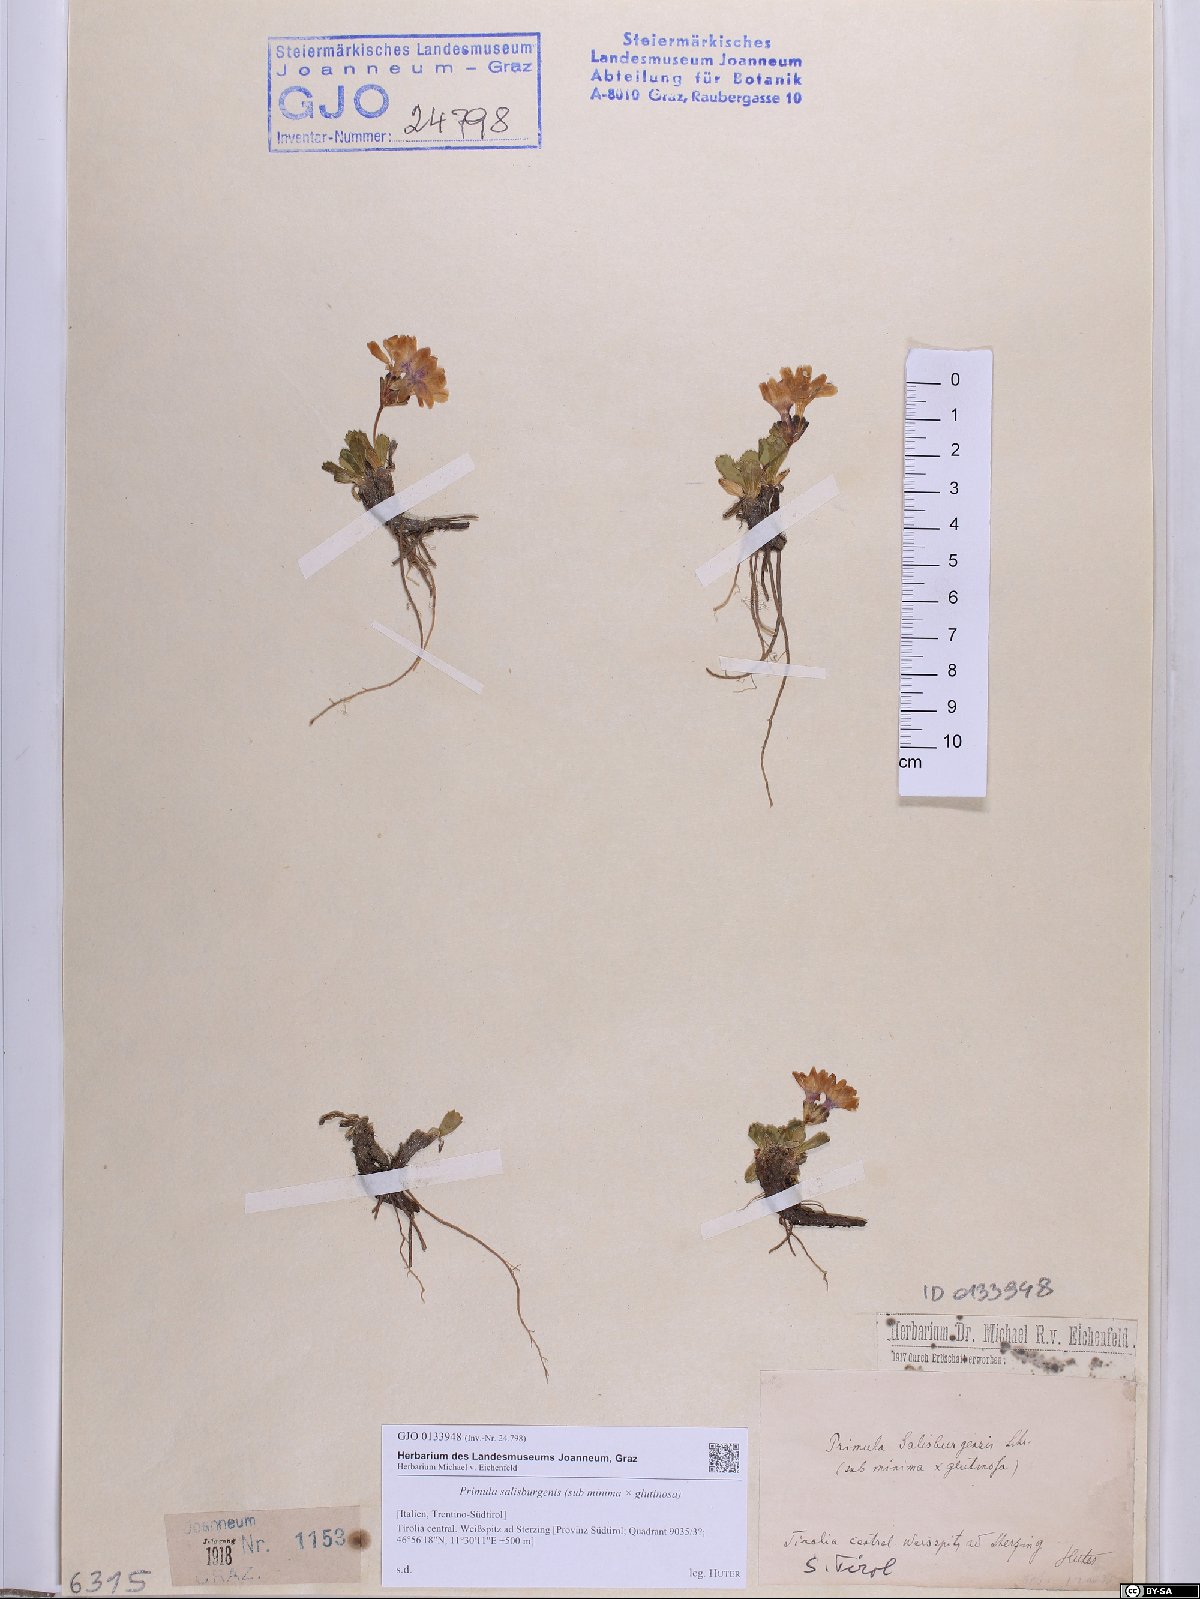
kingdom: Plantae
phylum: Tracheophyta
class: Magnoliopsida
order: Ericales
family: Primulaceae
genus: Primula
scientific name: Primula floerkeana
